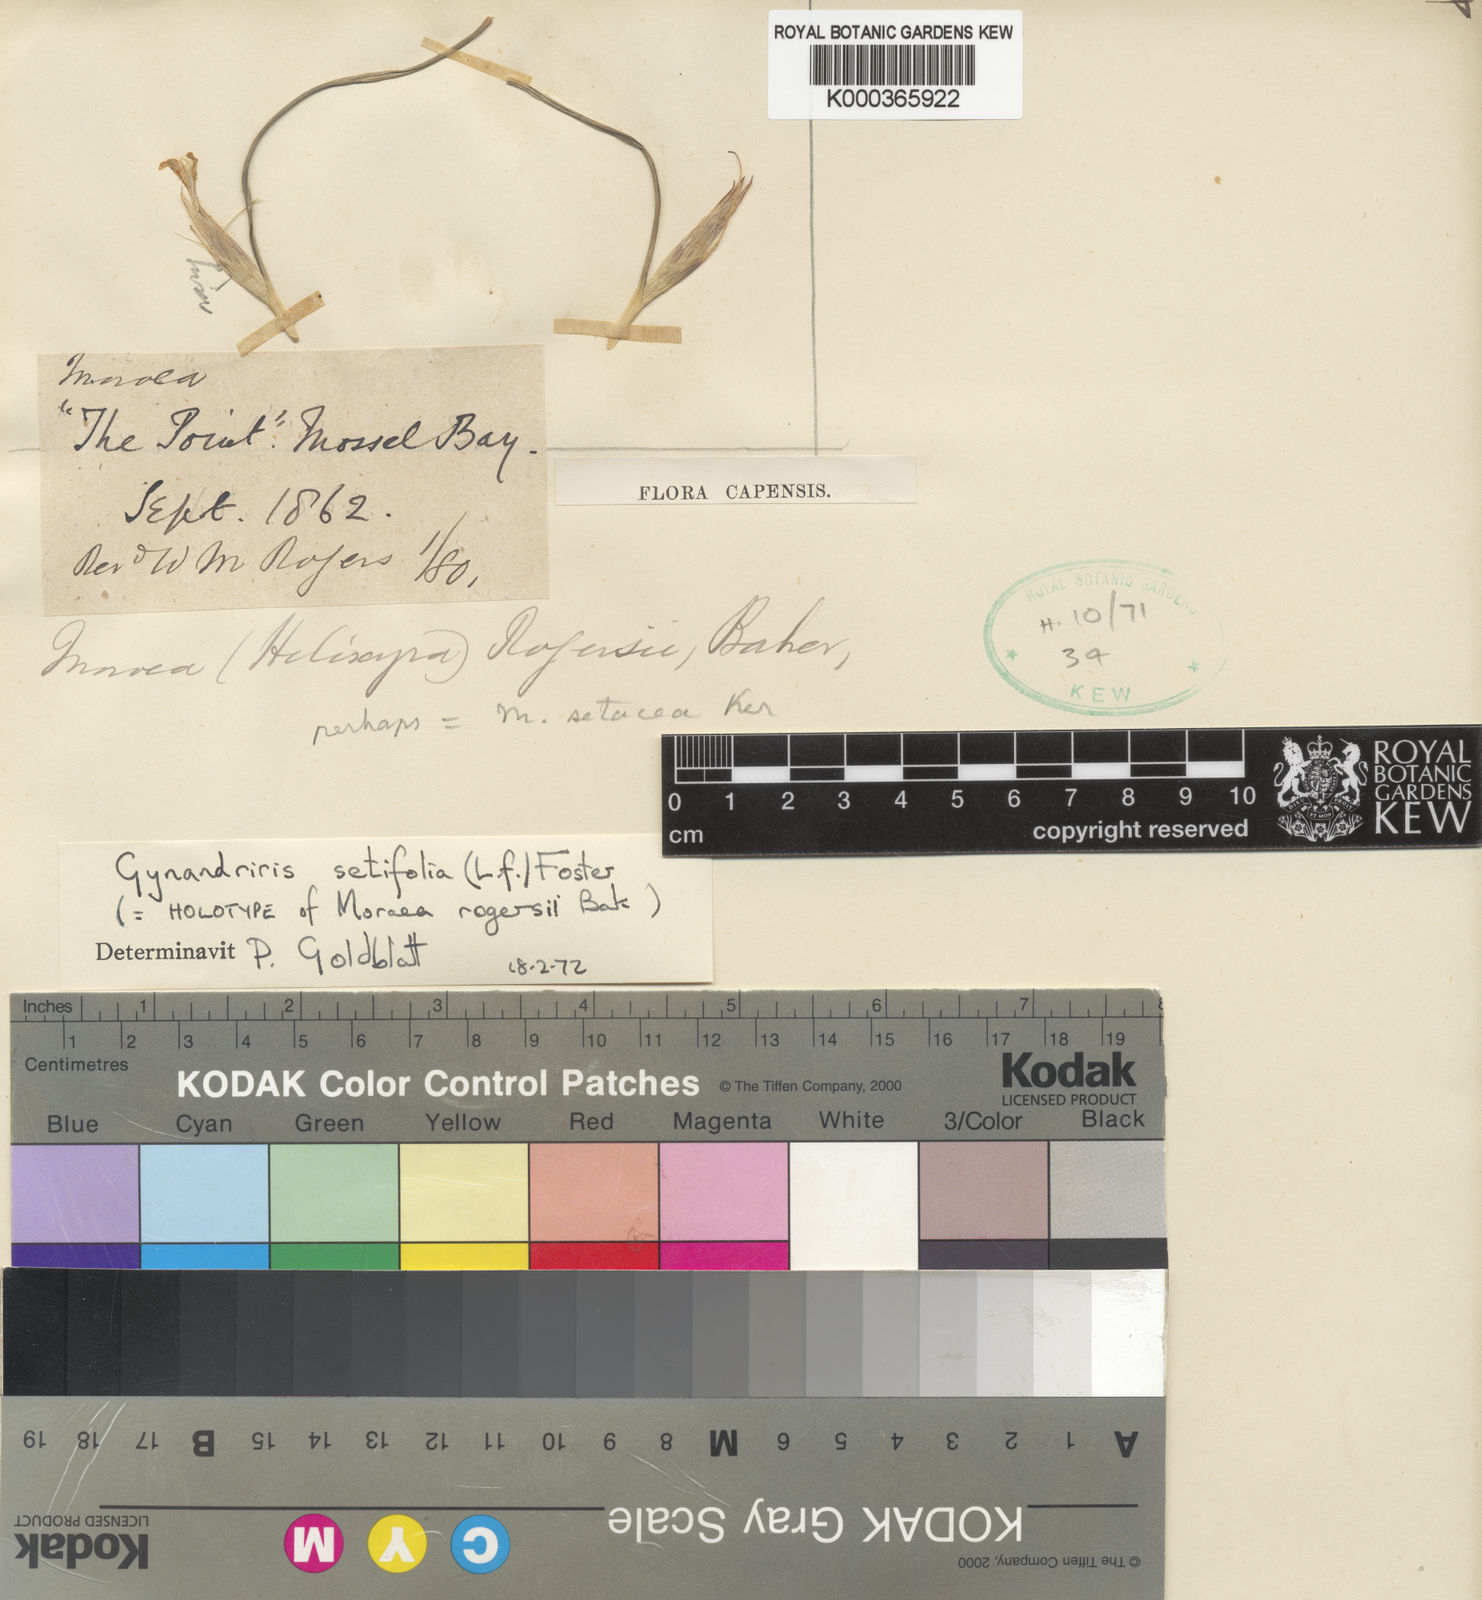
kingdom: Plantae
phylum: Tracheophyta
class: Liliopsida
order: Asparagales
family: Iridaceae
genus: Moraea
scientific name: Moraea setifolia
